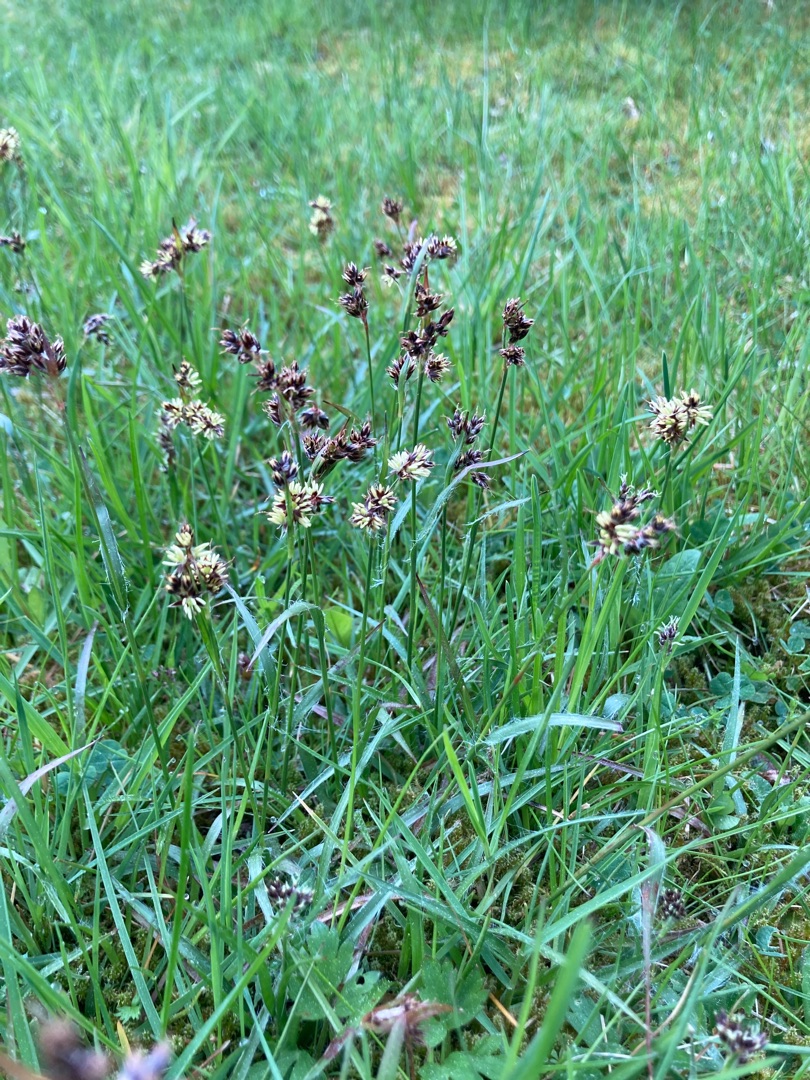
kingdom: Plantae
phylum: Tracheophyta
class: Liliopsida
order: Poales
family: Juncaceae
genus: Luzula
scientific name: Luzula campestris
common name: Mark-frytle
